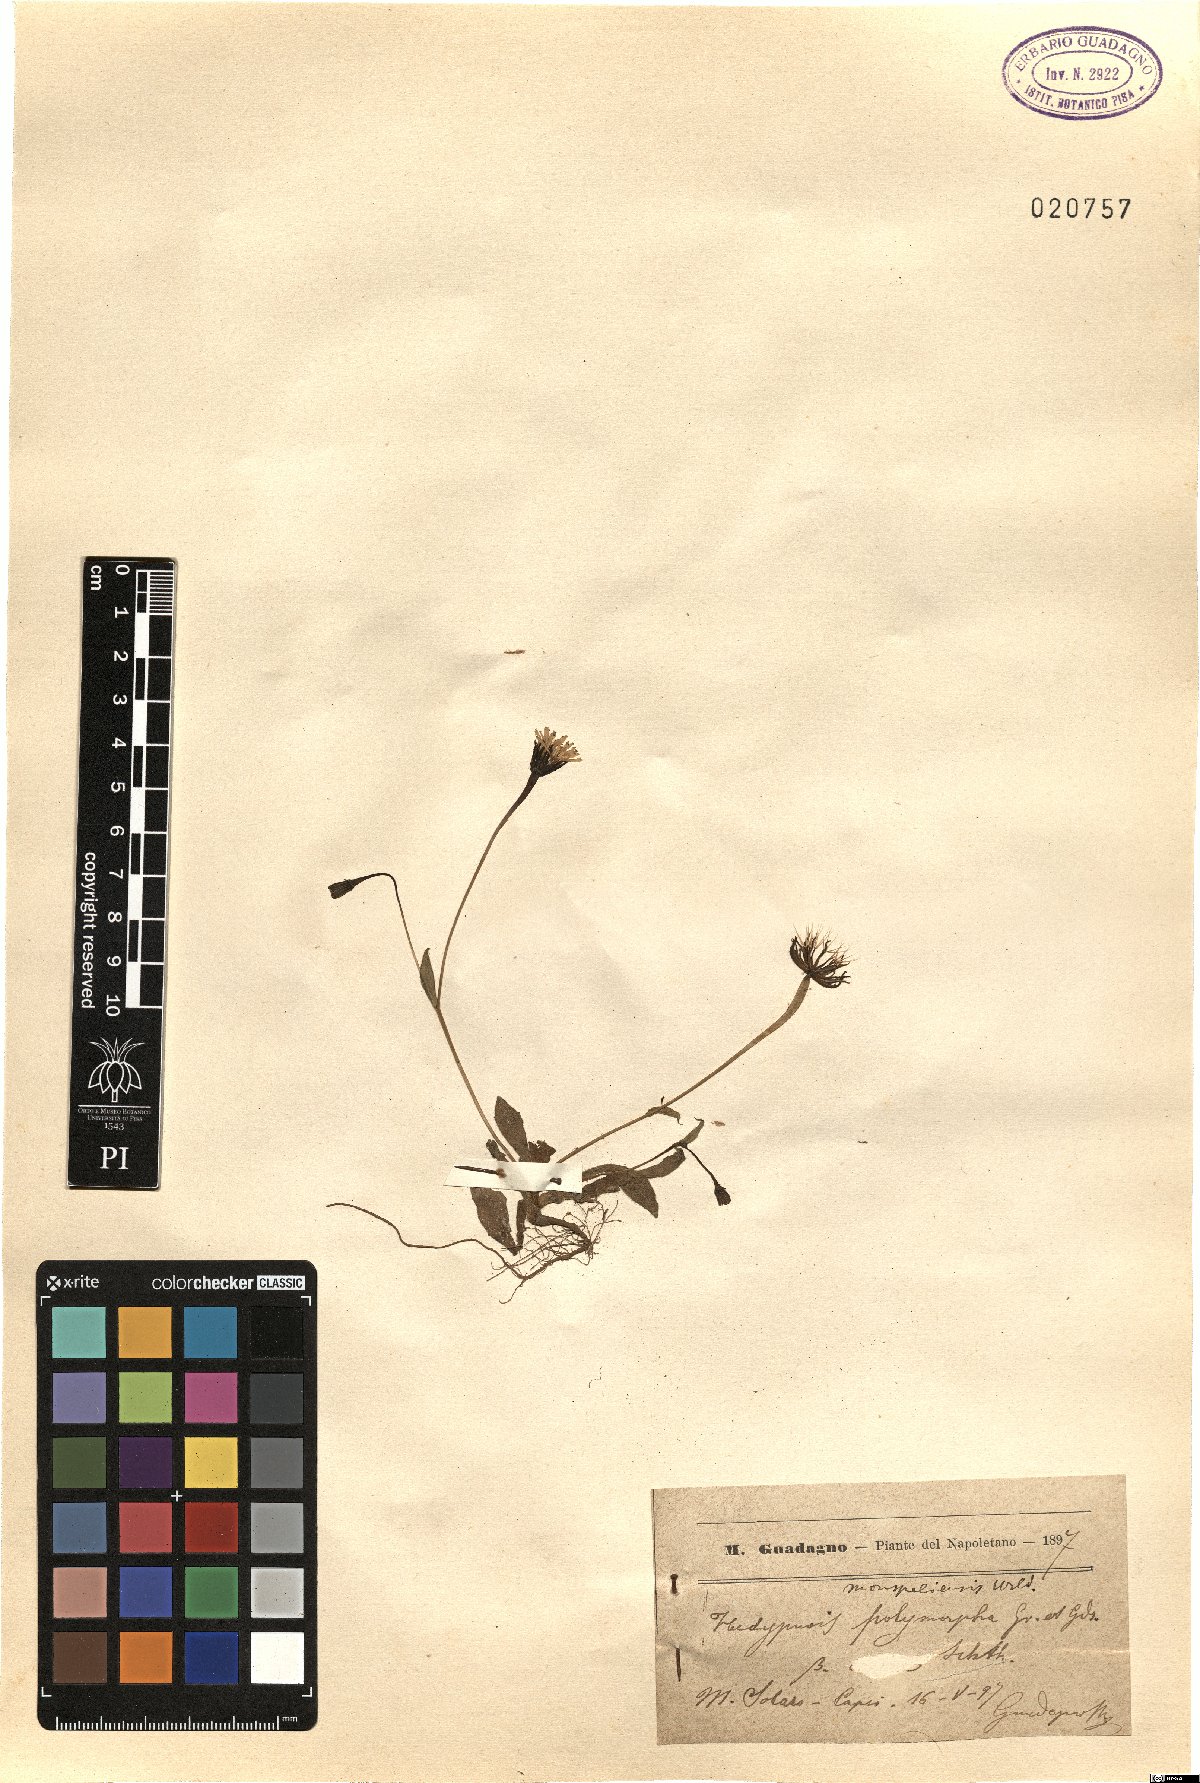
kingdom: Plantae
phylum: Tracheophyta
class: Magnoliopsida
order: Asterales
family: Asteraceae
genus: Hedypnois
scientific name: Hedypnois rhagadioloides
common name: Cretan weed
